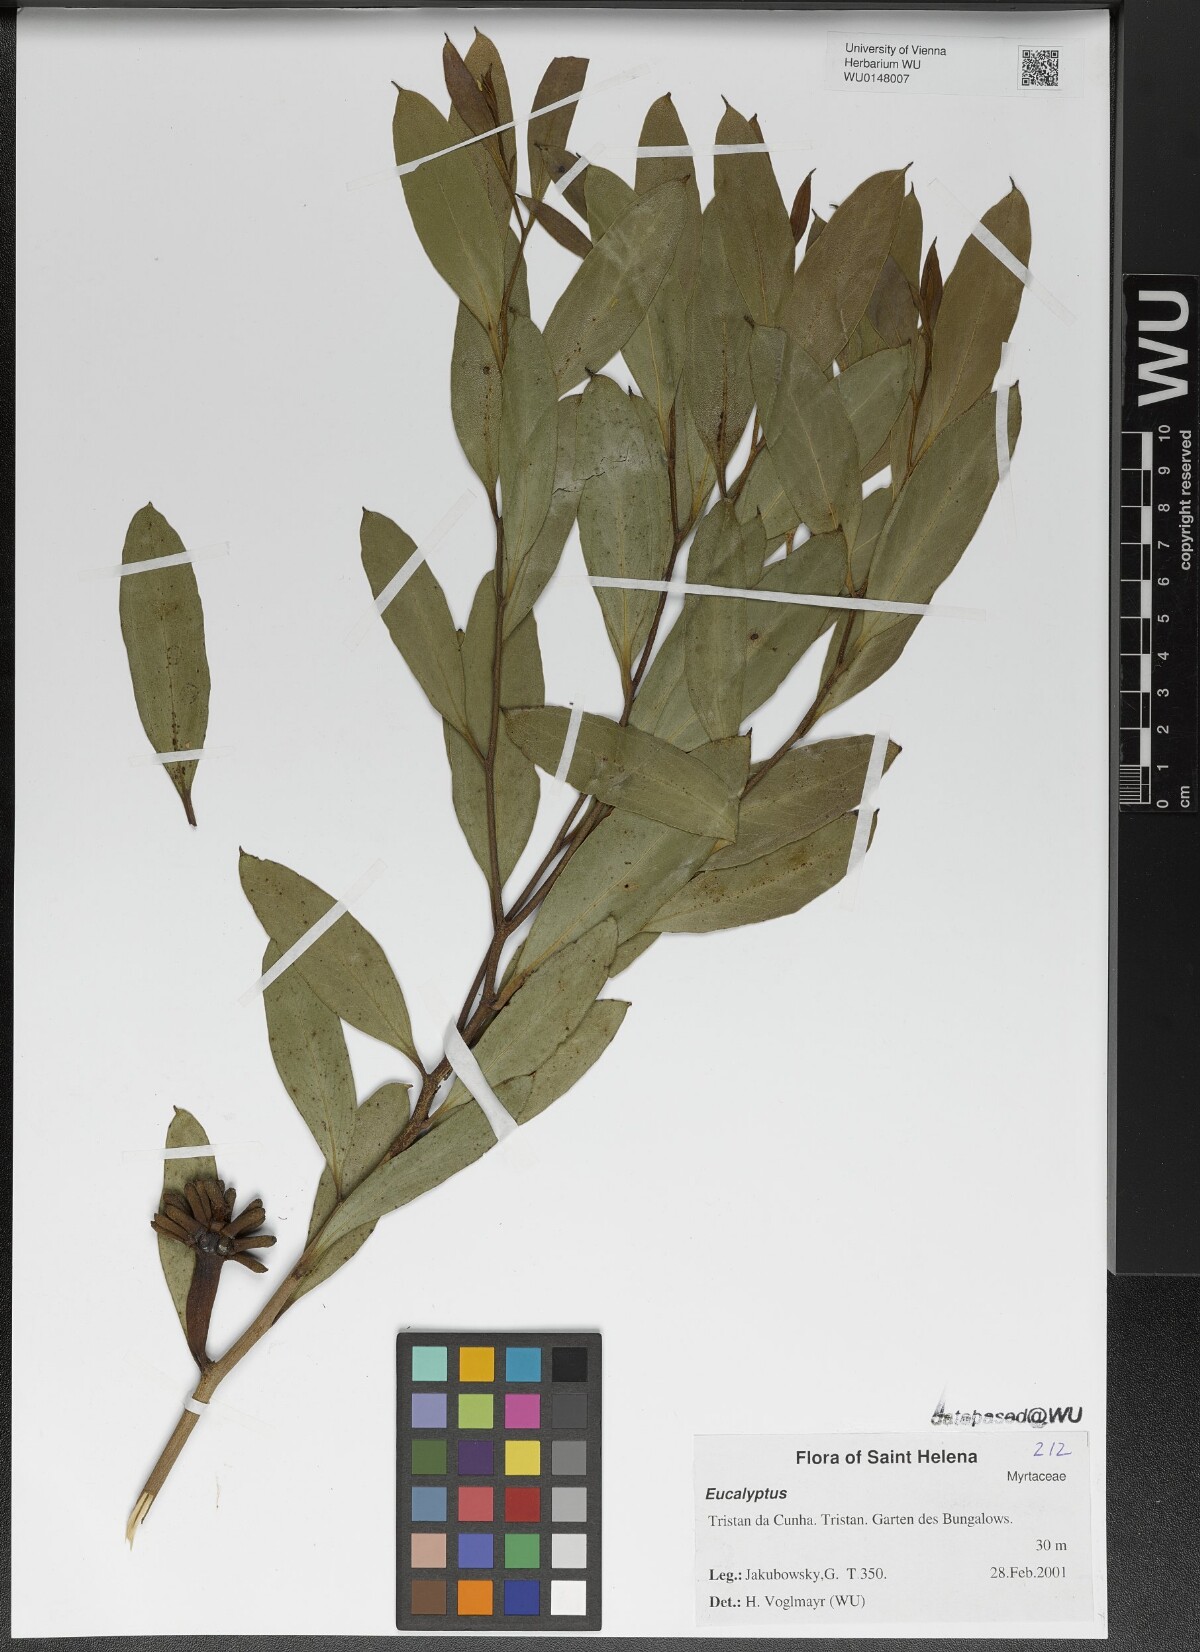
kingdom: Plantae
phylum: Tracheophyta
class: Magnoliopsida
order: Myrtales
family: Myrtaceae
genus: Eucalyptus
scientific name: Eucalyptus
